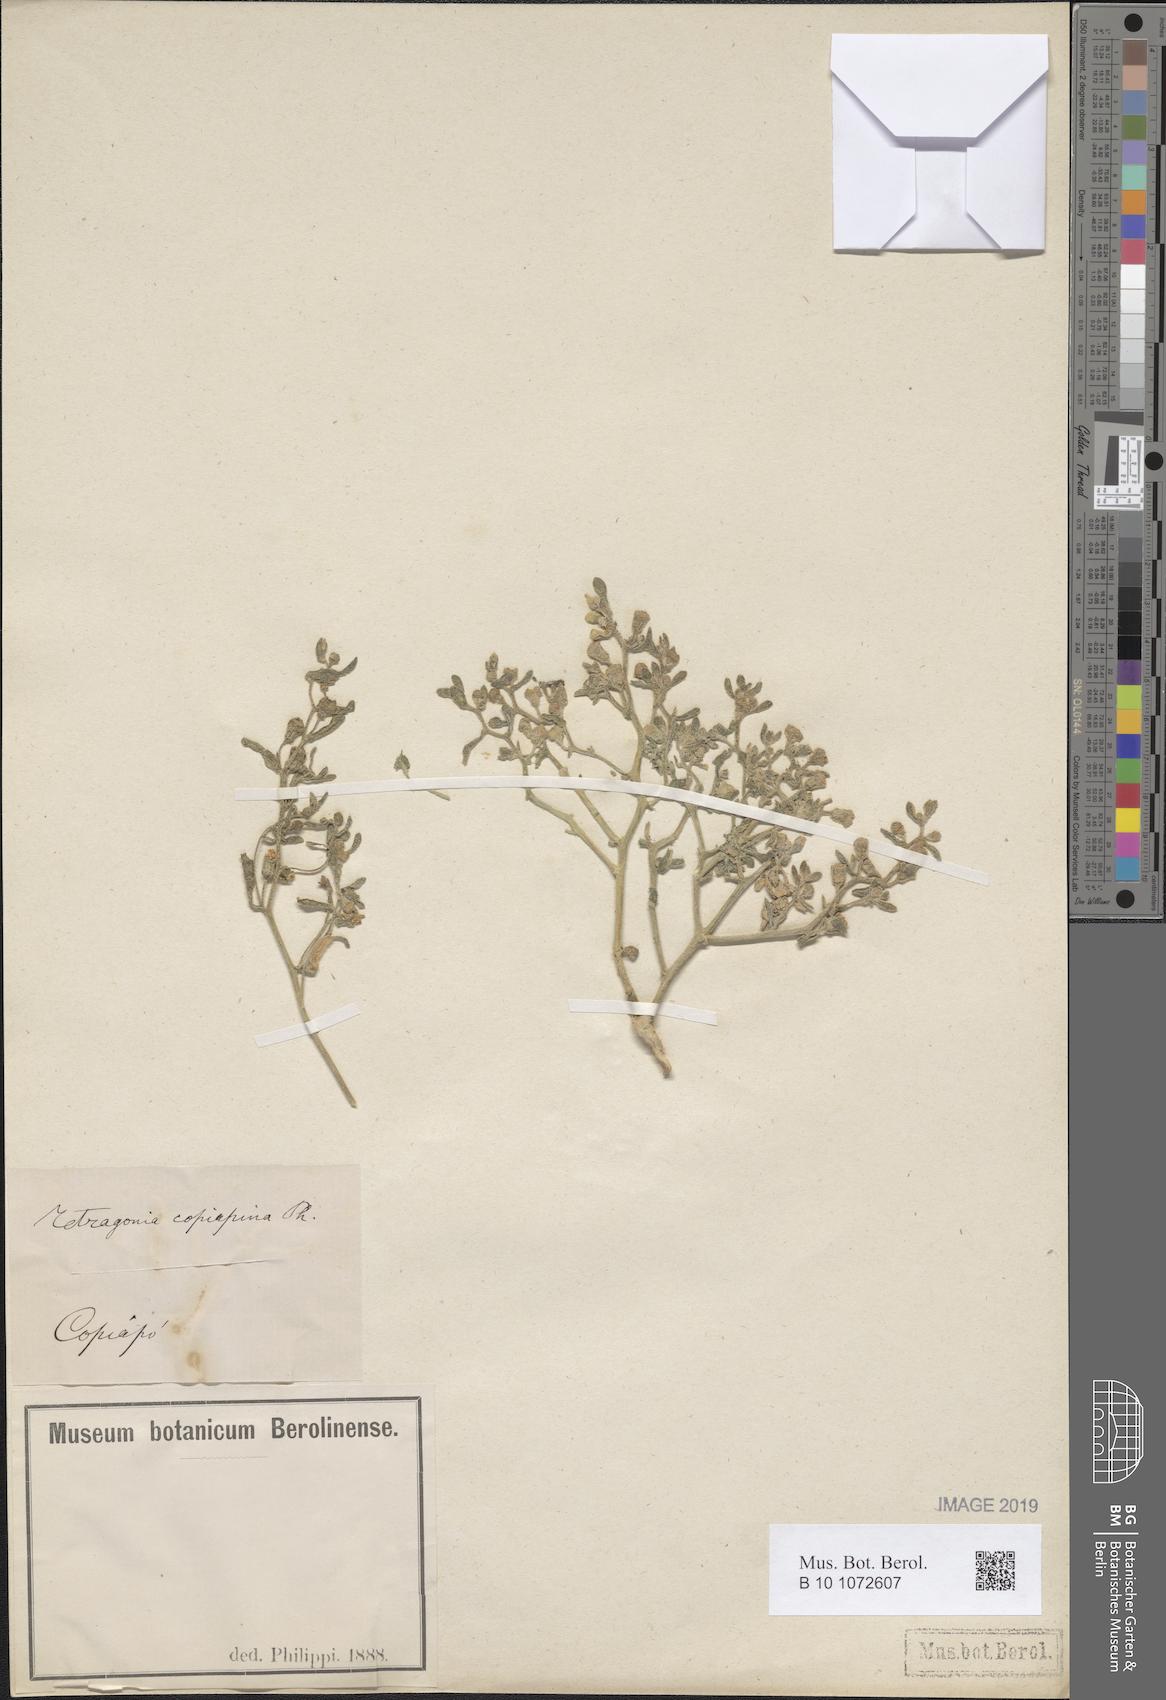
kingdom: Plantae
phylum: Tracheophyta
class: Magnoliopsida
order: Caryophyllales
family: Aizoaceae
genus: Tetragonia
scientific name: Tetragonia copiapina
